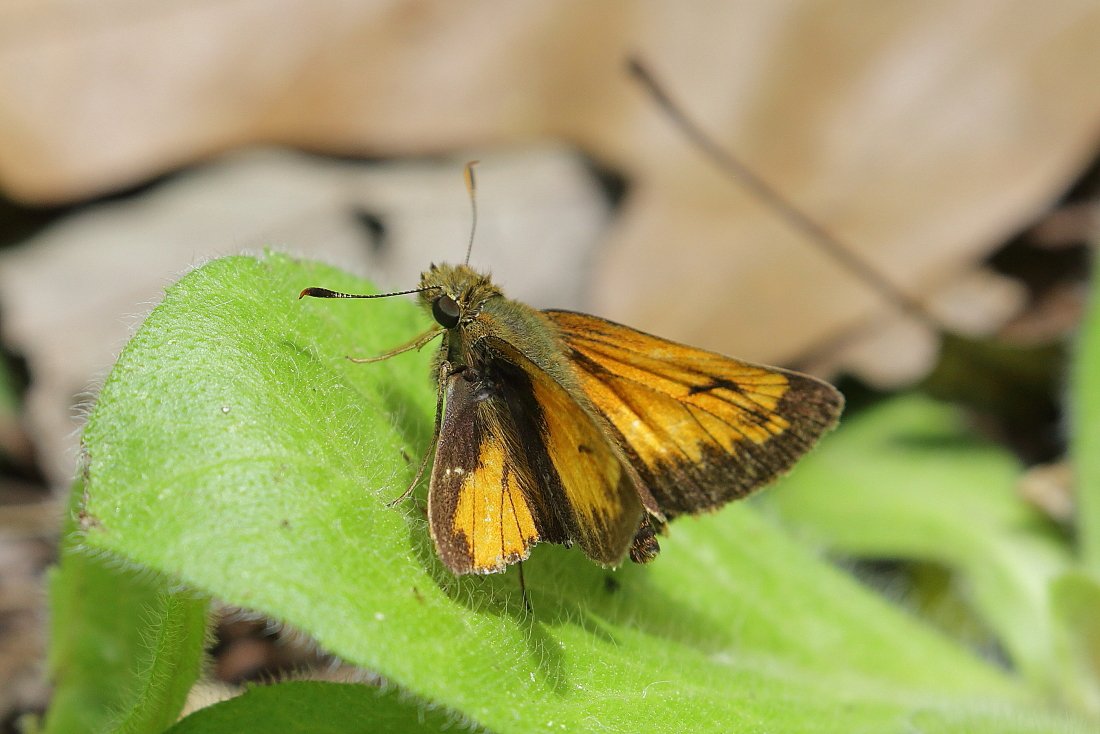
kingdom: Animalia
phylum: Arthropoda
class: Insecta
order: Lepidoptera
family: Hesperiidae
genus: Lon
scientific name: Lon hobomok
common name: Hobomok Skipper
